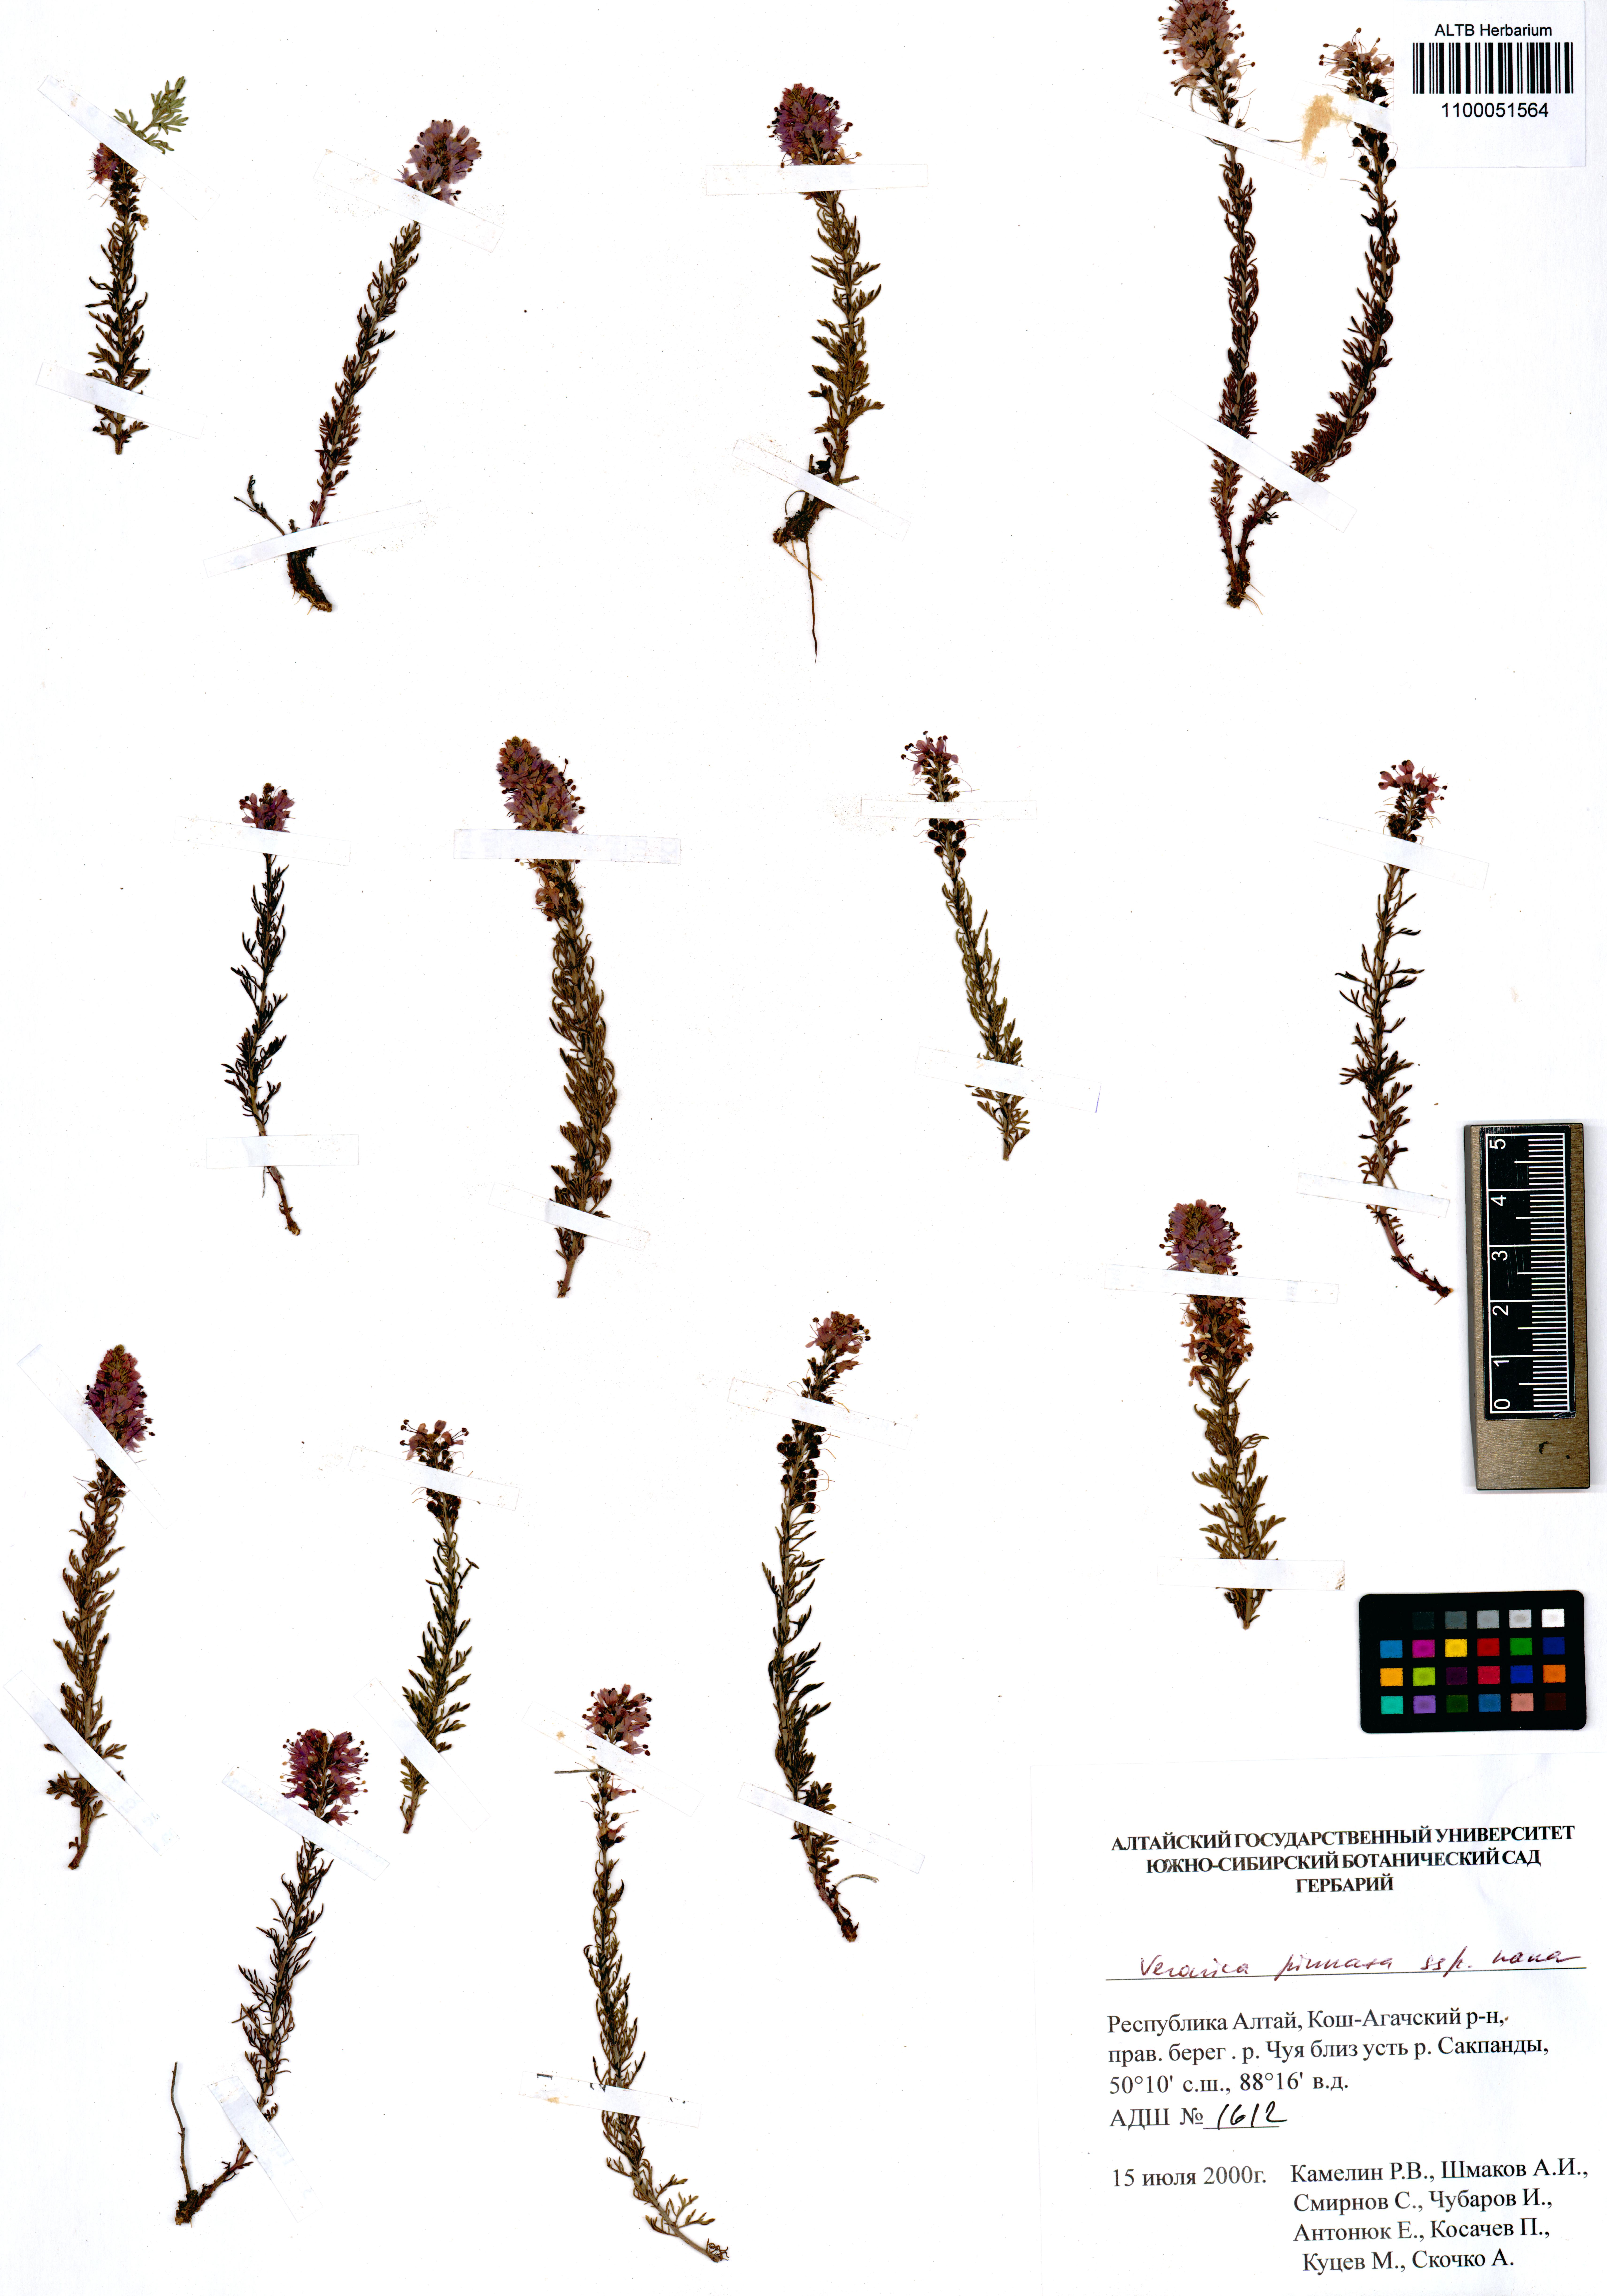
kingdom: Plantae
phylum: Tracheophyta
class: Magnoliopsida
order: Lamiales
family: Plantaginaceae
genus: Veronica
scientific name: Veronica pinnata
